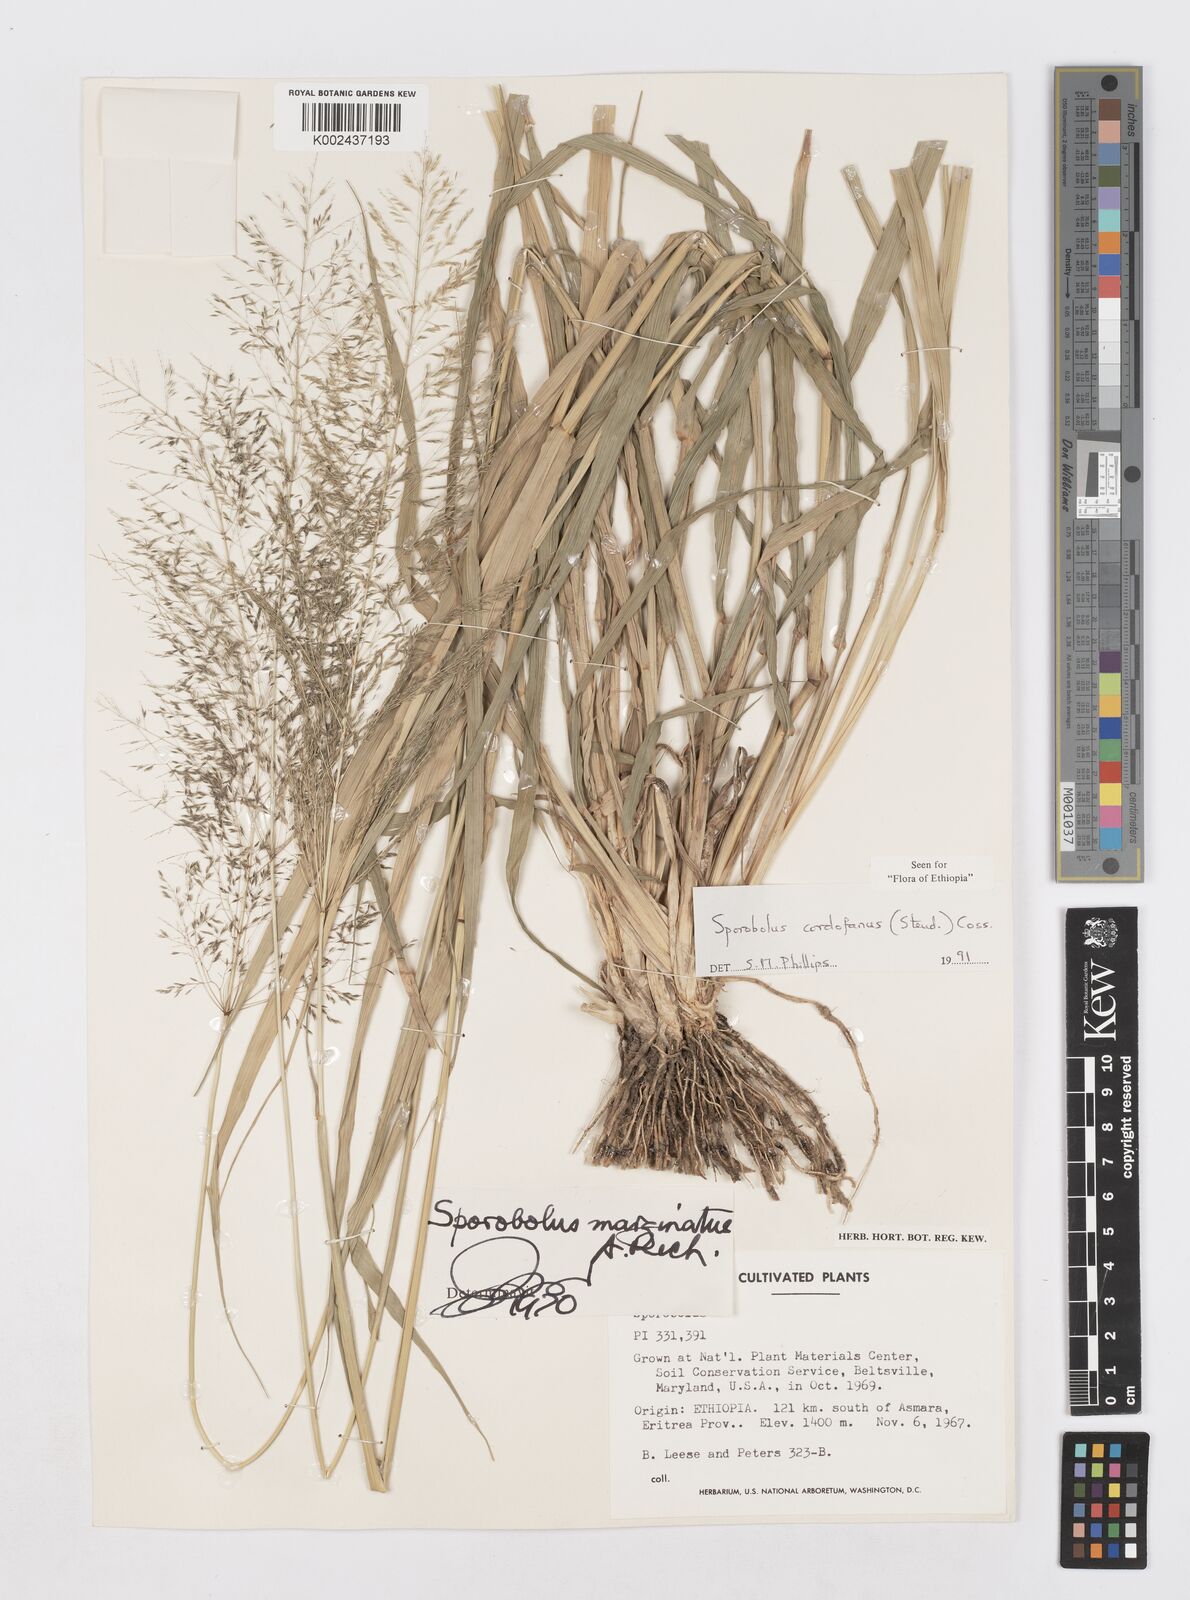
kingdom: Plantae
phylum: Tracheophyta
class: Liliopsida
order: Poales
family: Poaceae
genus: Sporobolus
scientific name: Sporobolus cordofanus
